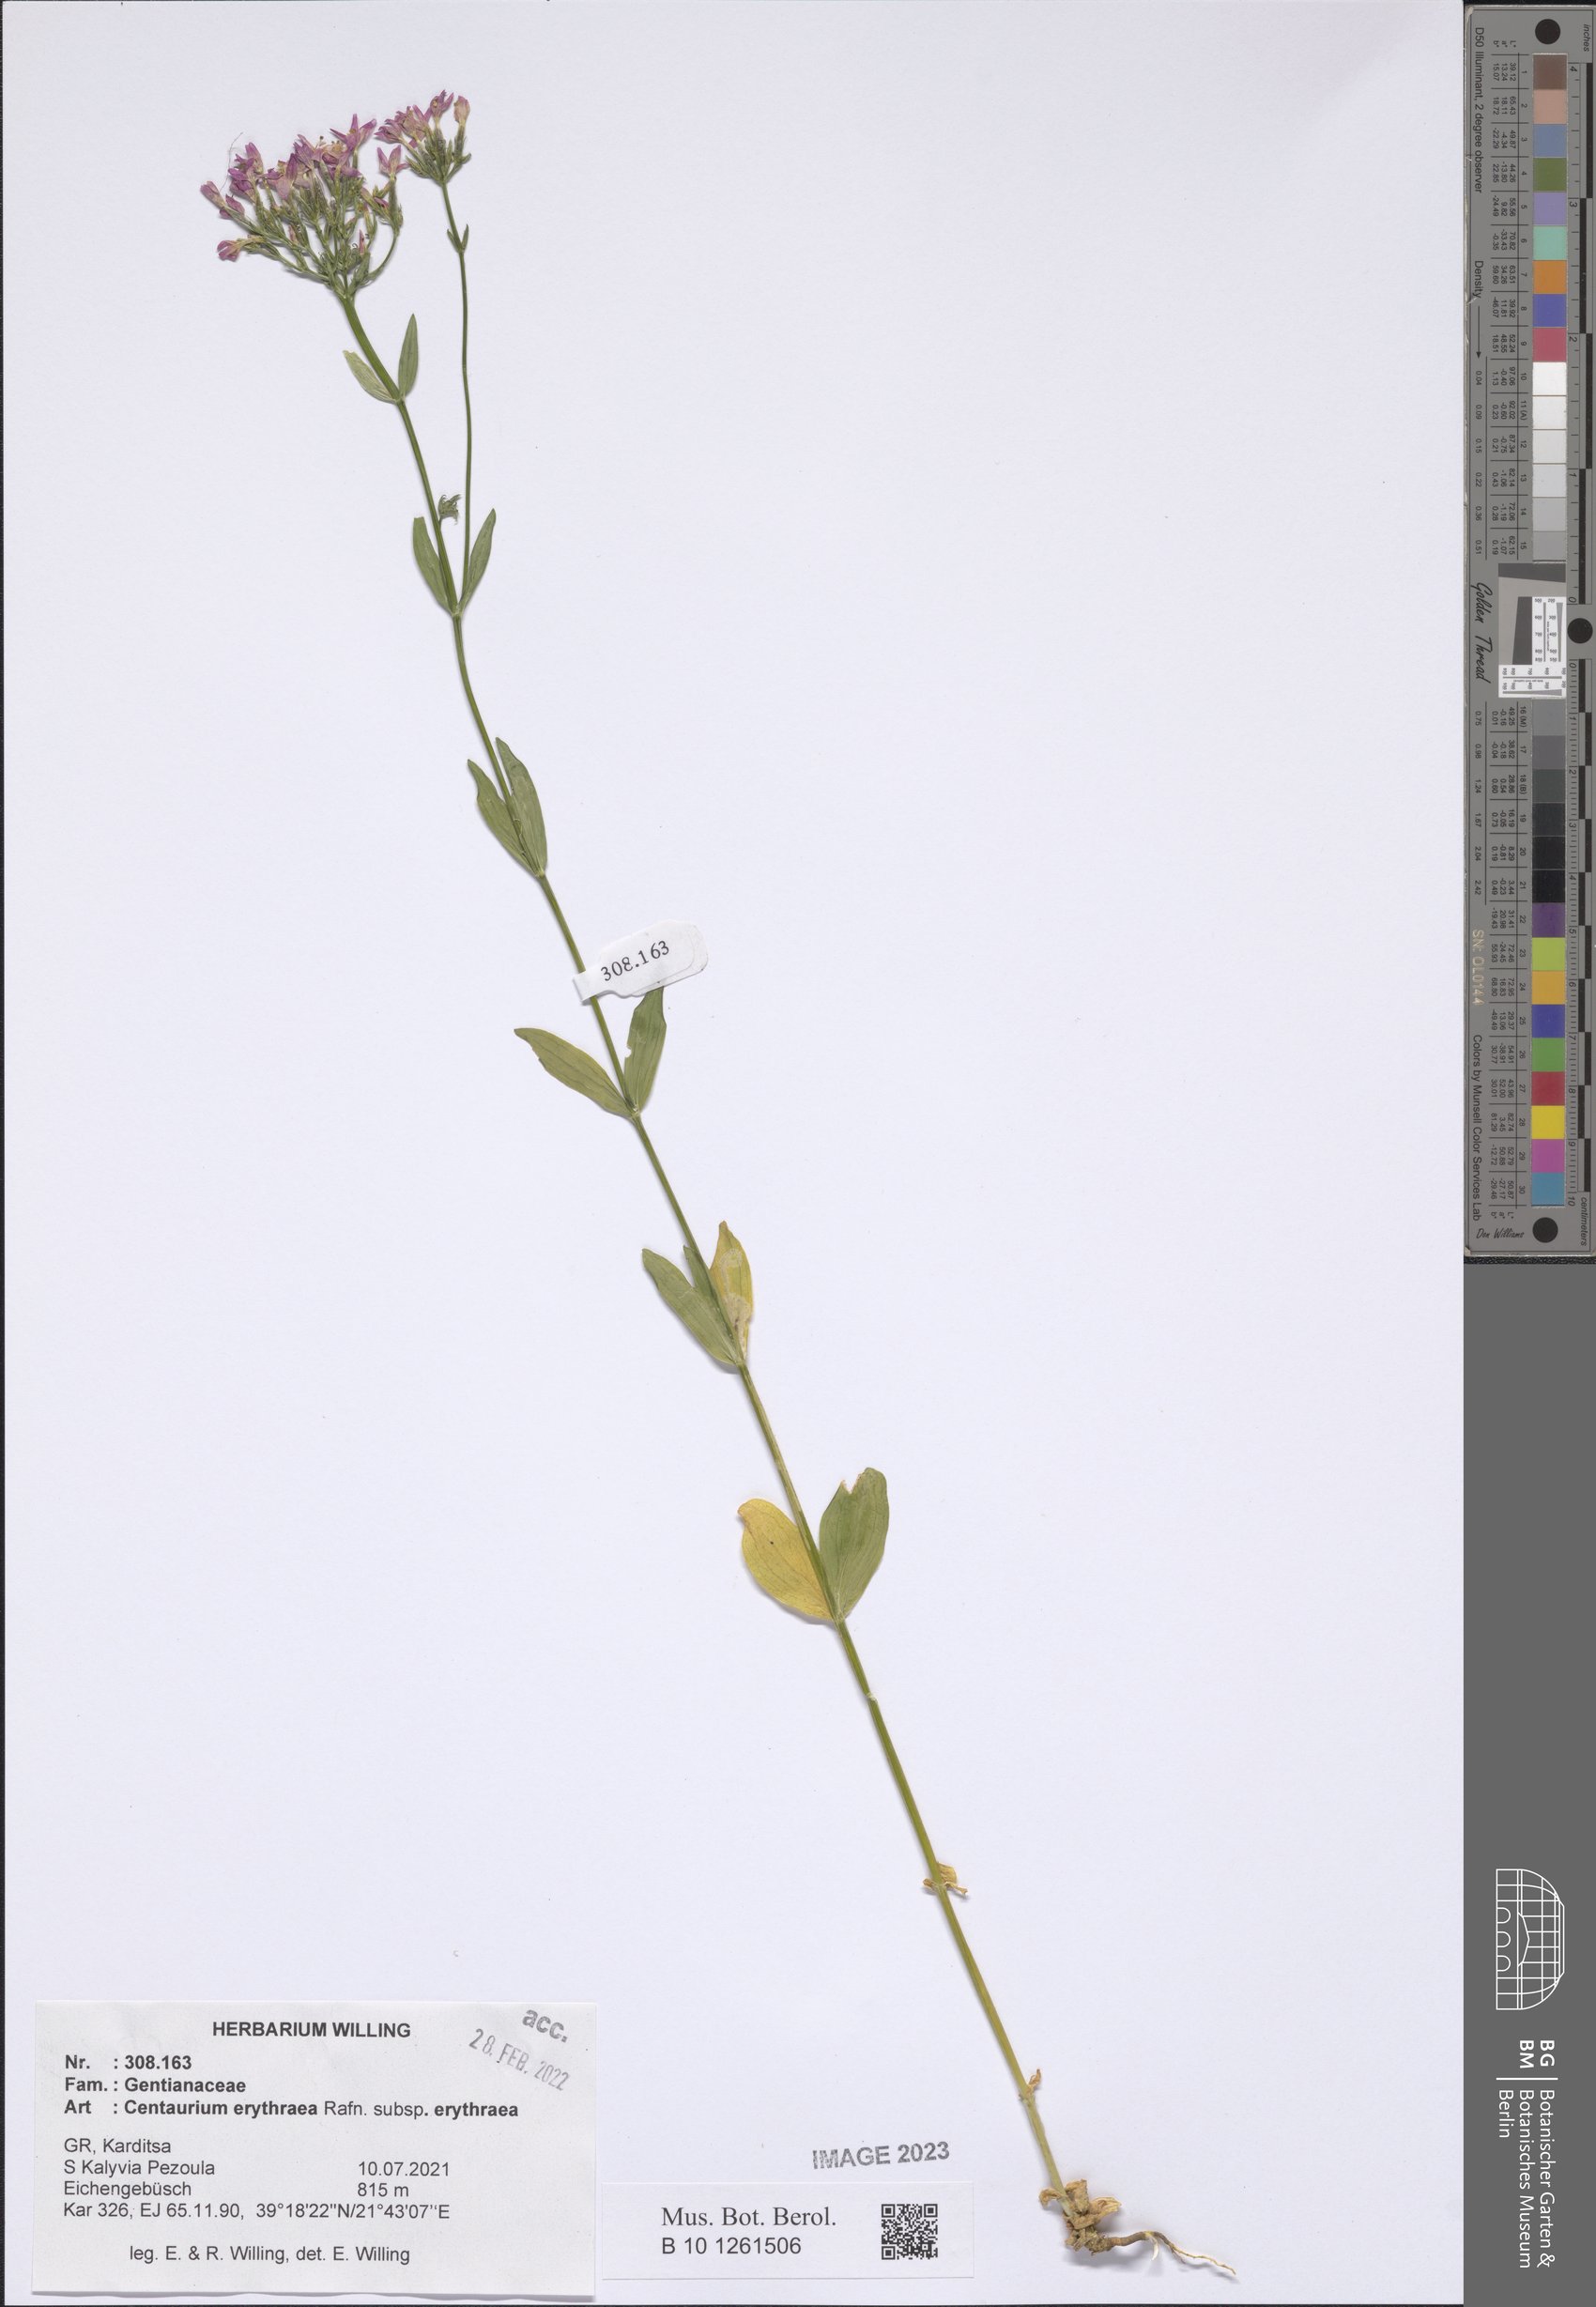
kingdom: Plantae
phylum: Tracheophyta
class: Magnoliopsida
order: Gentianales
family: Gentianaceae
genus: Centaurium
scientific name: Centaurium erythraea
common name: Common centaury
